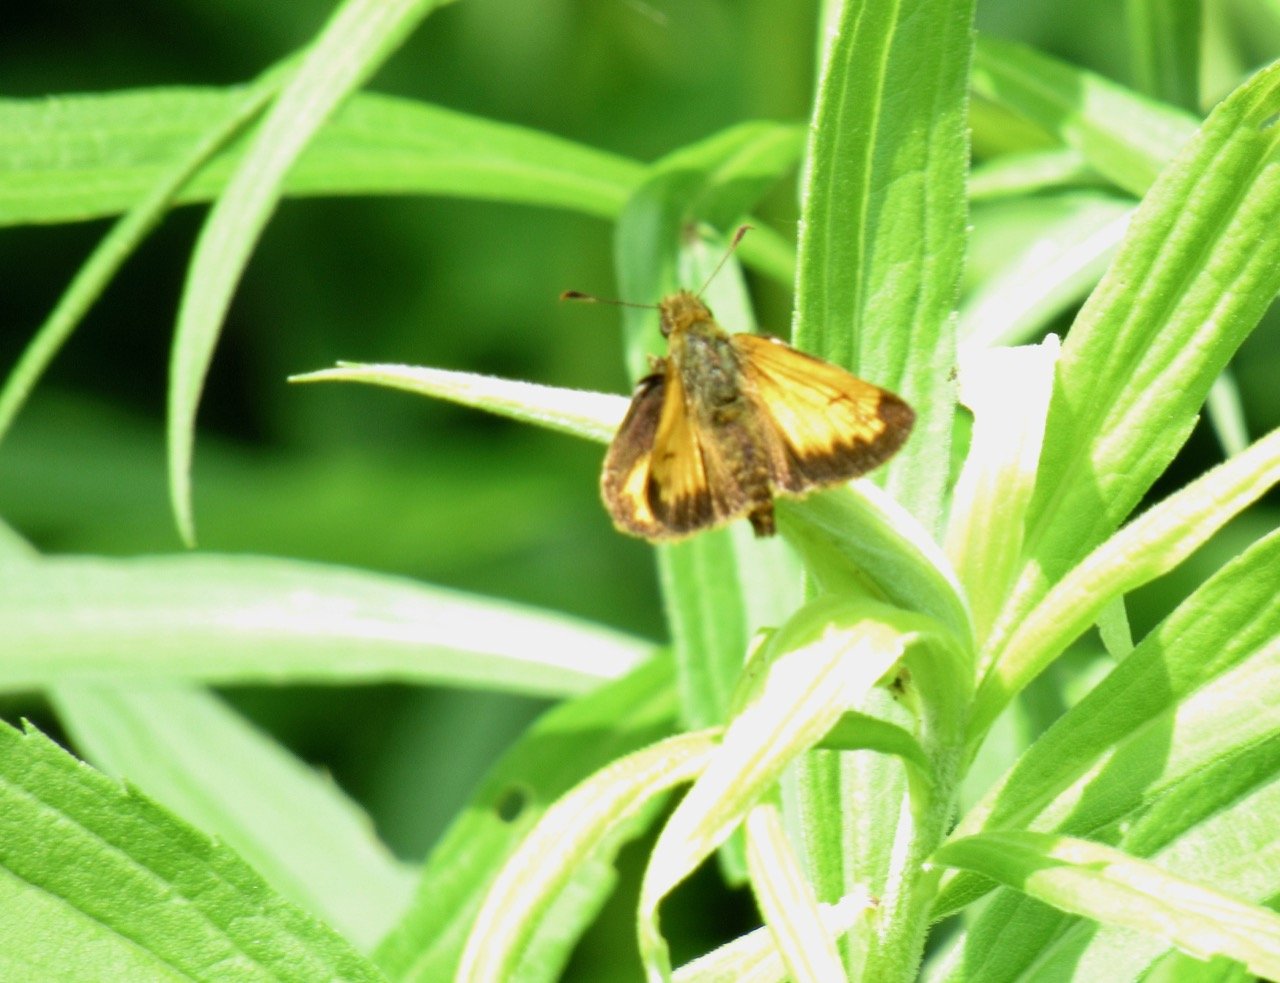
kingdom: Animalia
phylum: Arthropoda
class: Insecta
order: Lepidoptera
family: Hesperiidae
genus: Lon
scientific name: Lon hobomok
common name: Hobomok Skipper
